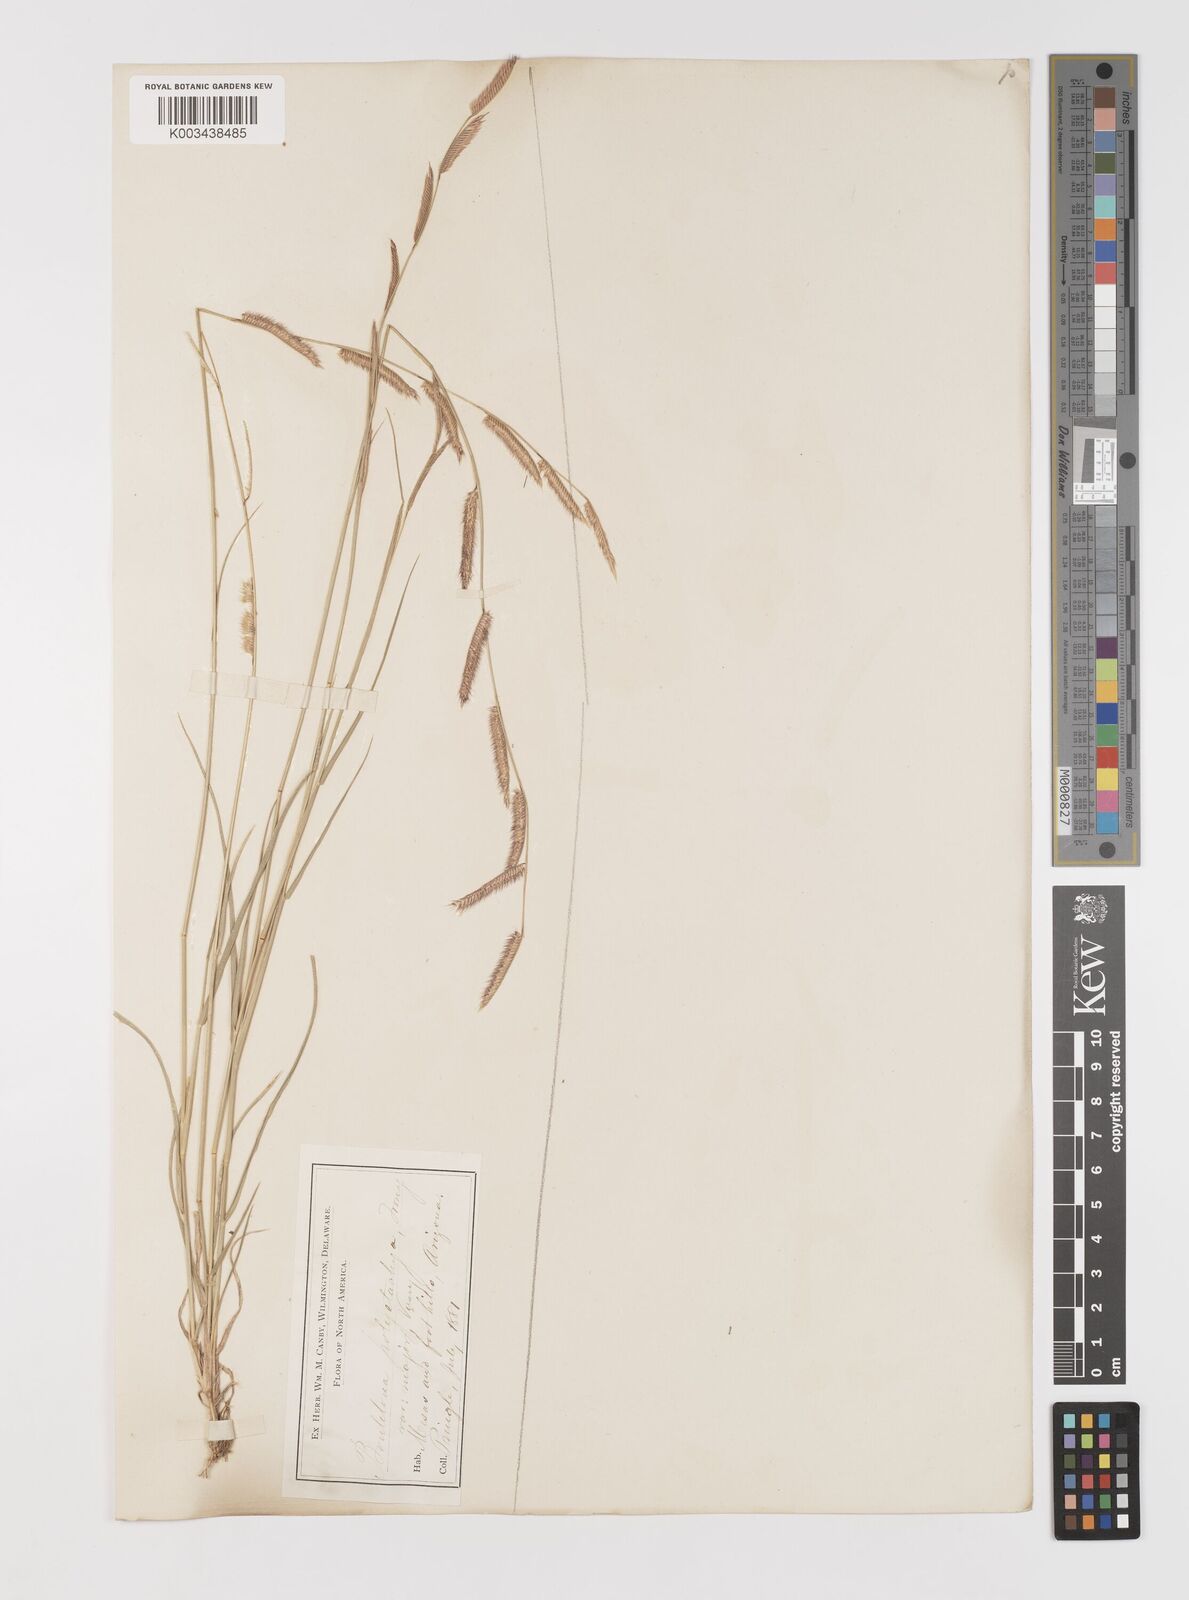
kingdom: Plantae
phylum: Tracheophyta
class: Liliopsida
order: Poales
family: Poaceae
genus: Bouteloua
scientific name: Bouteloua
